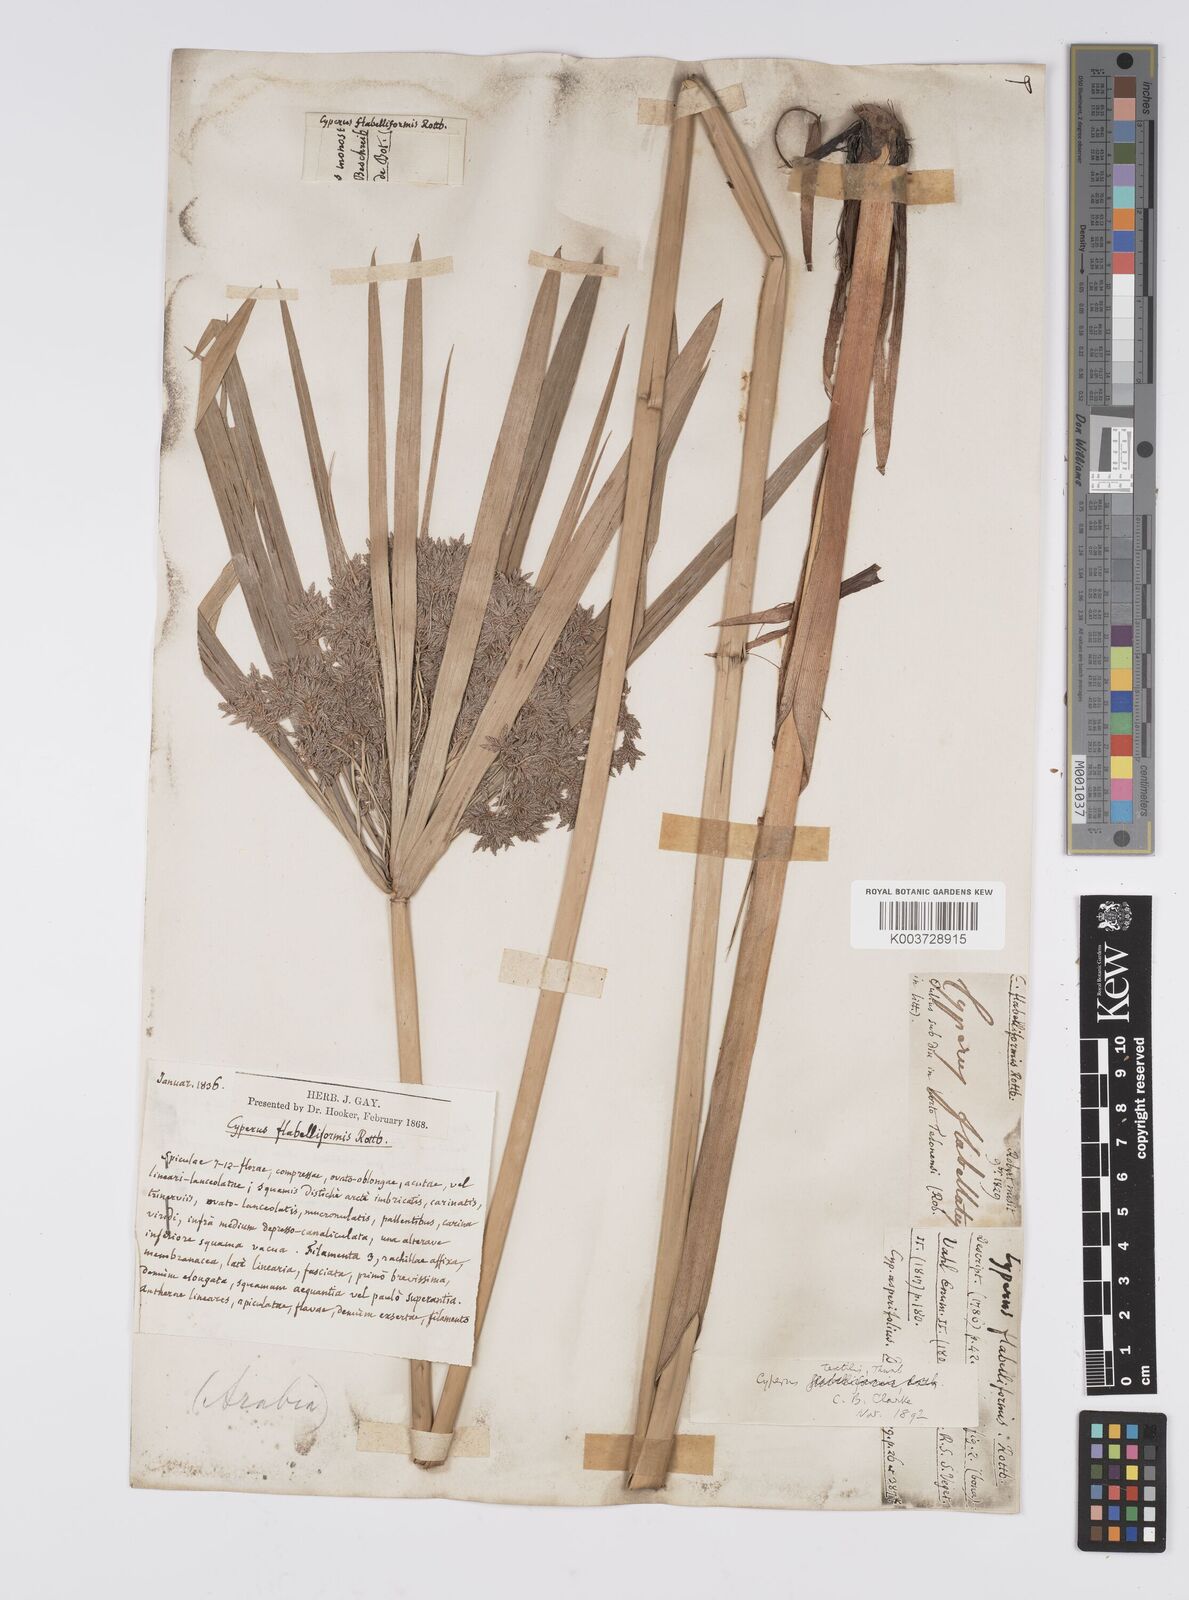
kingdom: Plantae
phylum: Tracheophyta
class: Liliopsida
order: Poales
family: Cyperaceae
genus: Cyperus
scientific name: Cyperus alternifolius
